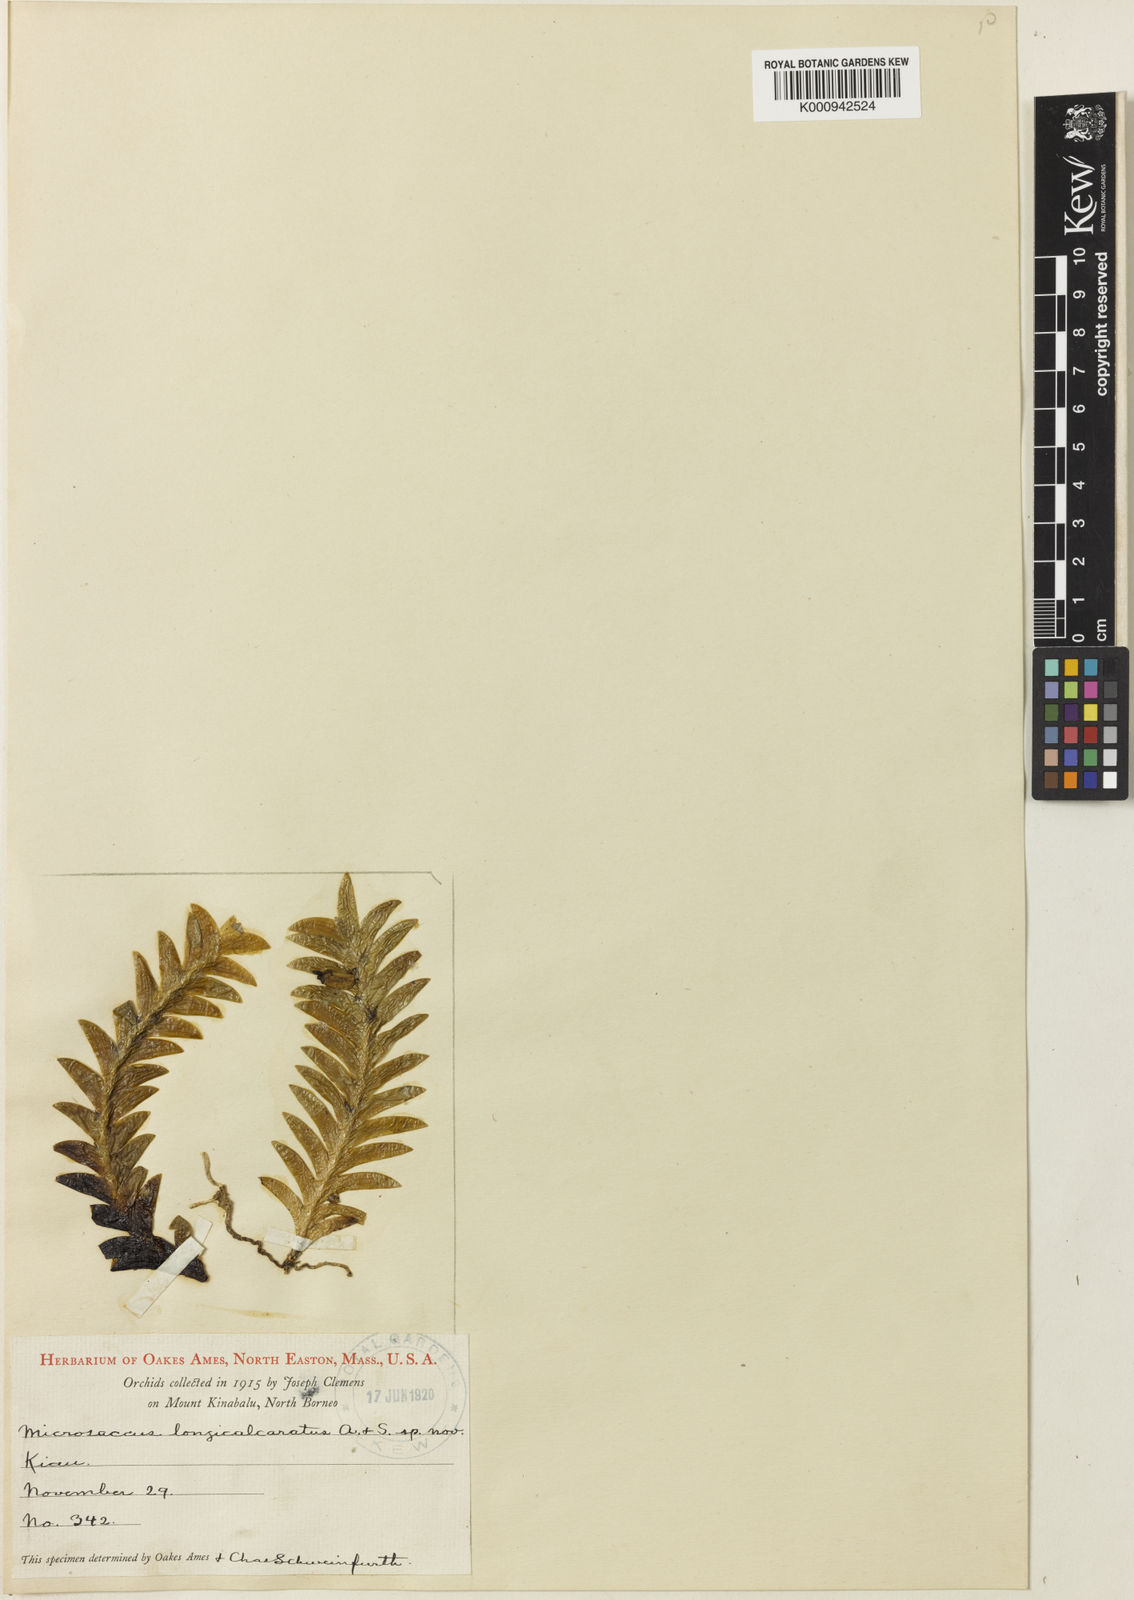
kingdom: Plantae
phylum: Tracheophyta
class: Liliopsida
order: Asparagales
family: Orchidaceae
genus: Jejewoodia
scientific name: Jejewoodia longicalcarata
